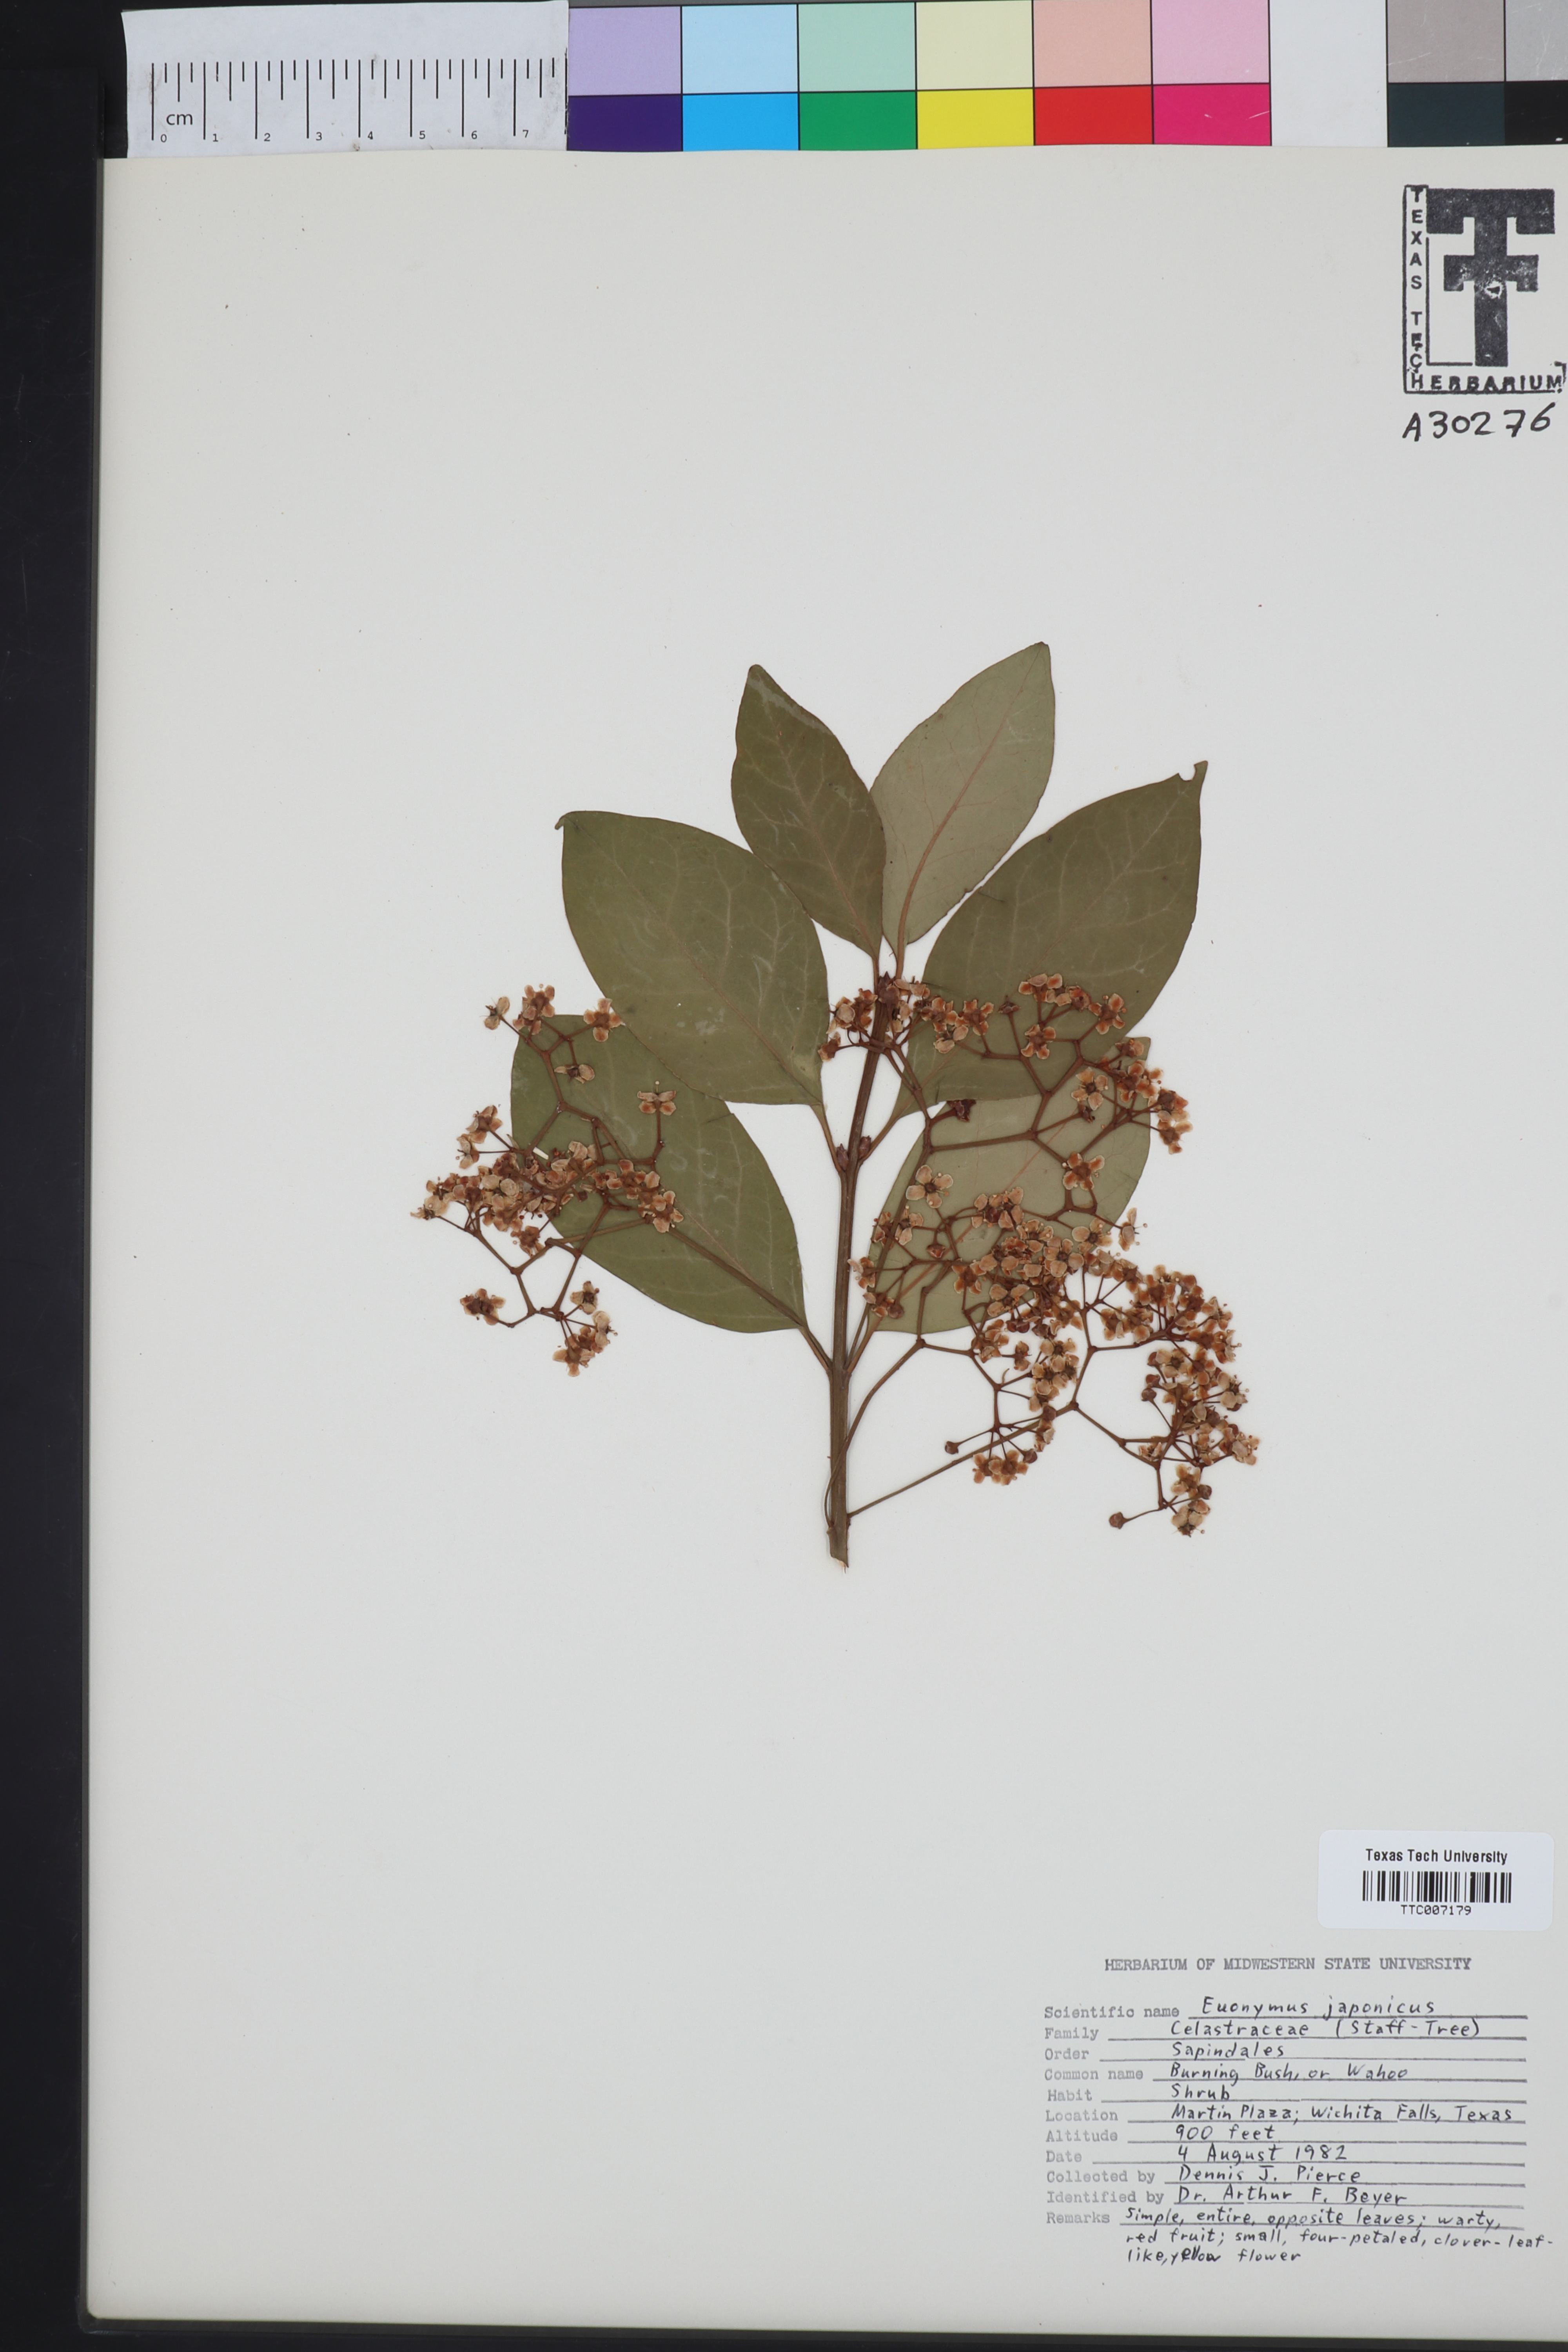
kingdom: Plantae
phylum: Tracheophyta
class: Magnoliopsida
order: Celastrales
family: Celastraceae
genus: Euonymus
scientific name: Euonymus japonicus
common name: Japanese spindletree
